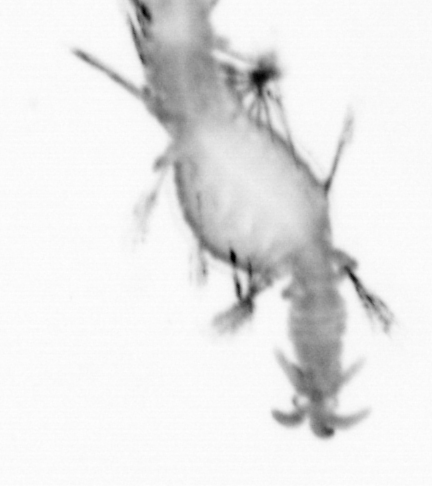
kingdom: Animalia
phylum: Annelida
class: Polychaeta
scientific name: Polychaeta
